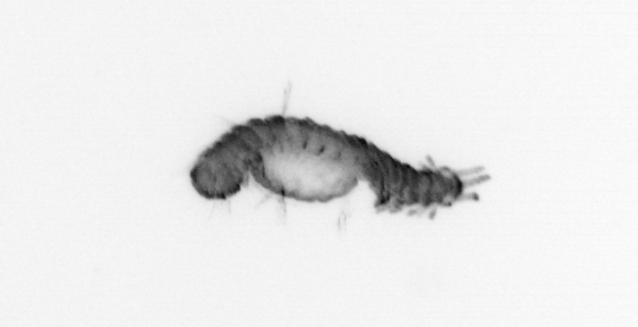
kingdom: Animalia
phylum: Annelida
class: Polychaeta
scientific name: Polychaeta
